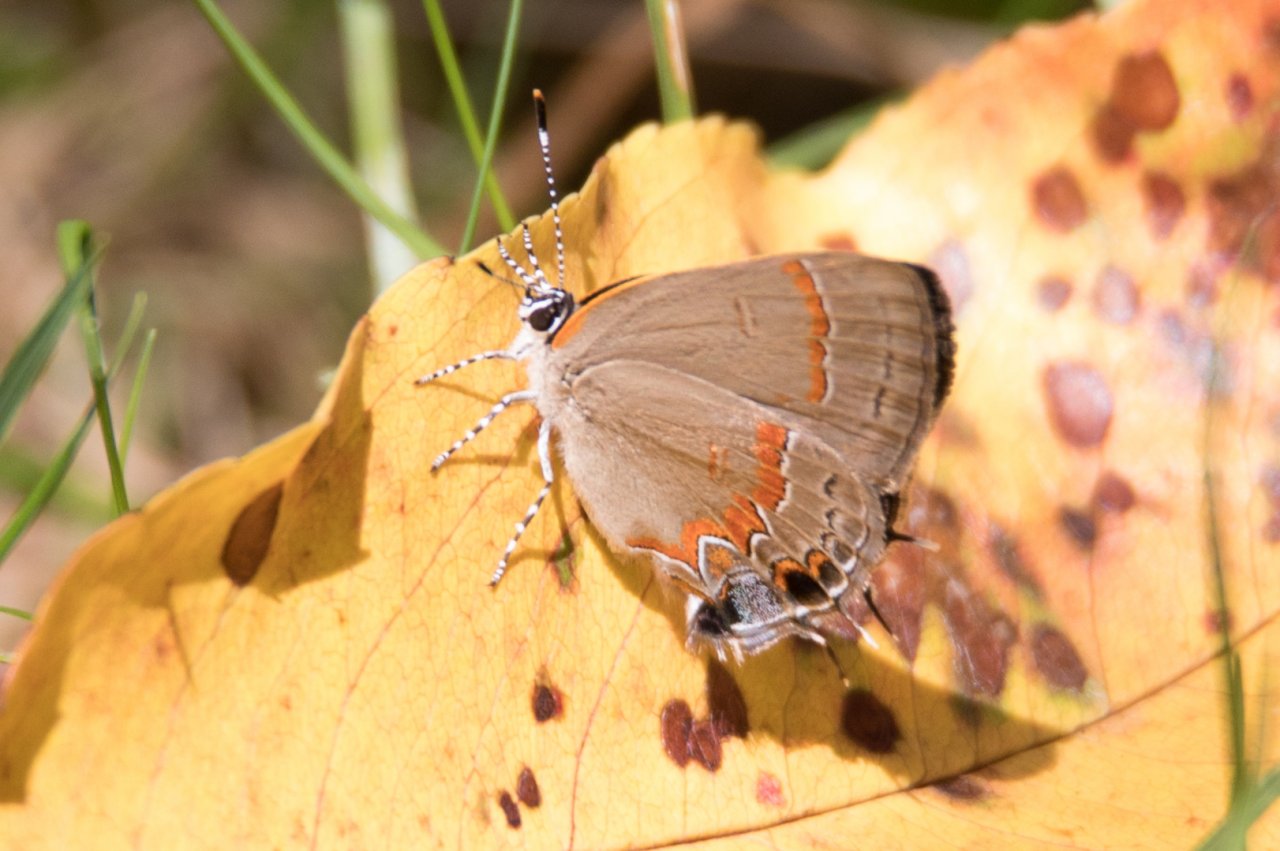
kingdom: Animalia
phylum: Arthropoda
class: Insecta
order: Lepidoptera
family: Lycaenidae
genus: Calycopis
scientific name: Calycopis cecrops
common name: Red-banded Hairstreak
